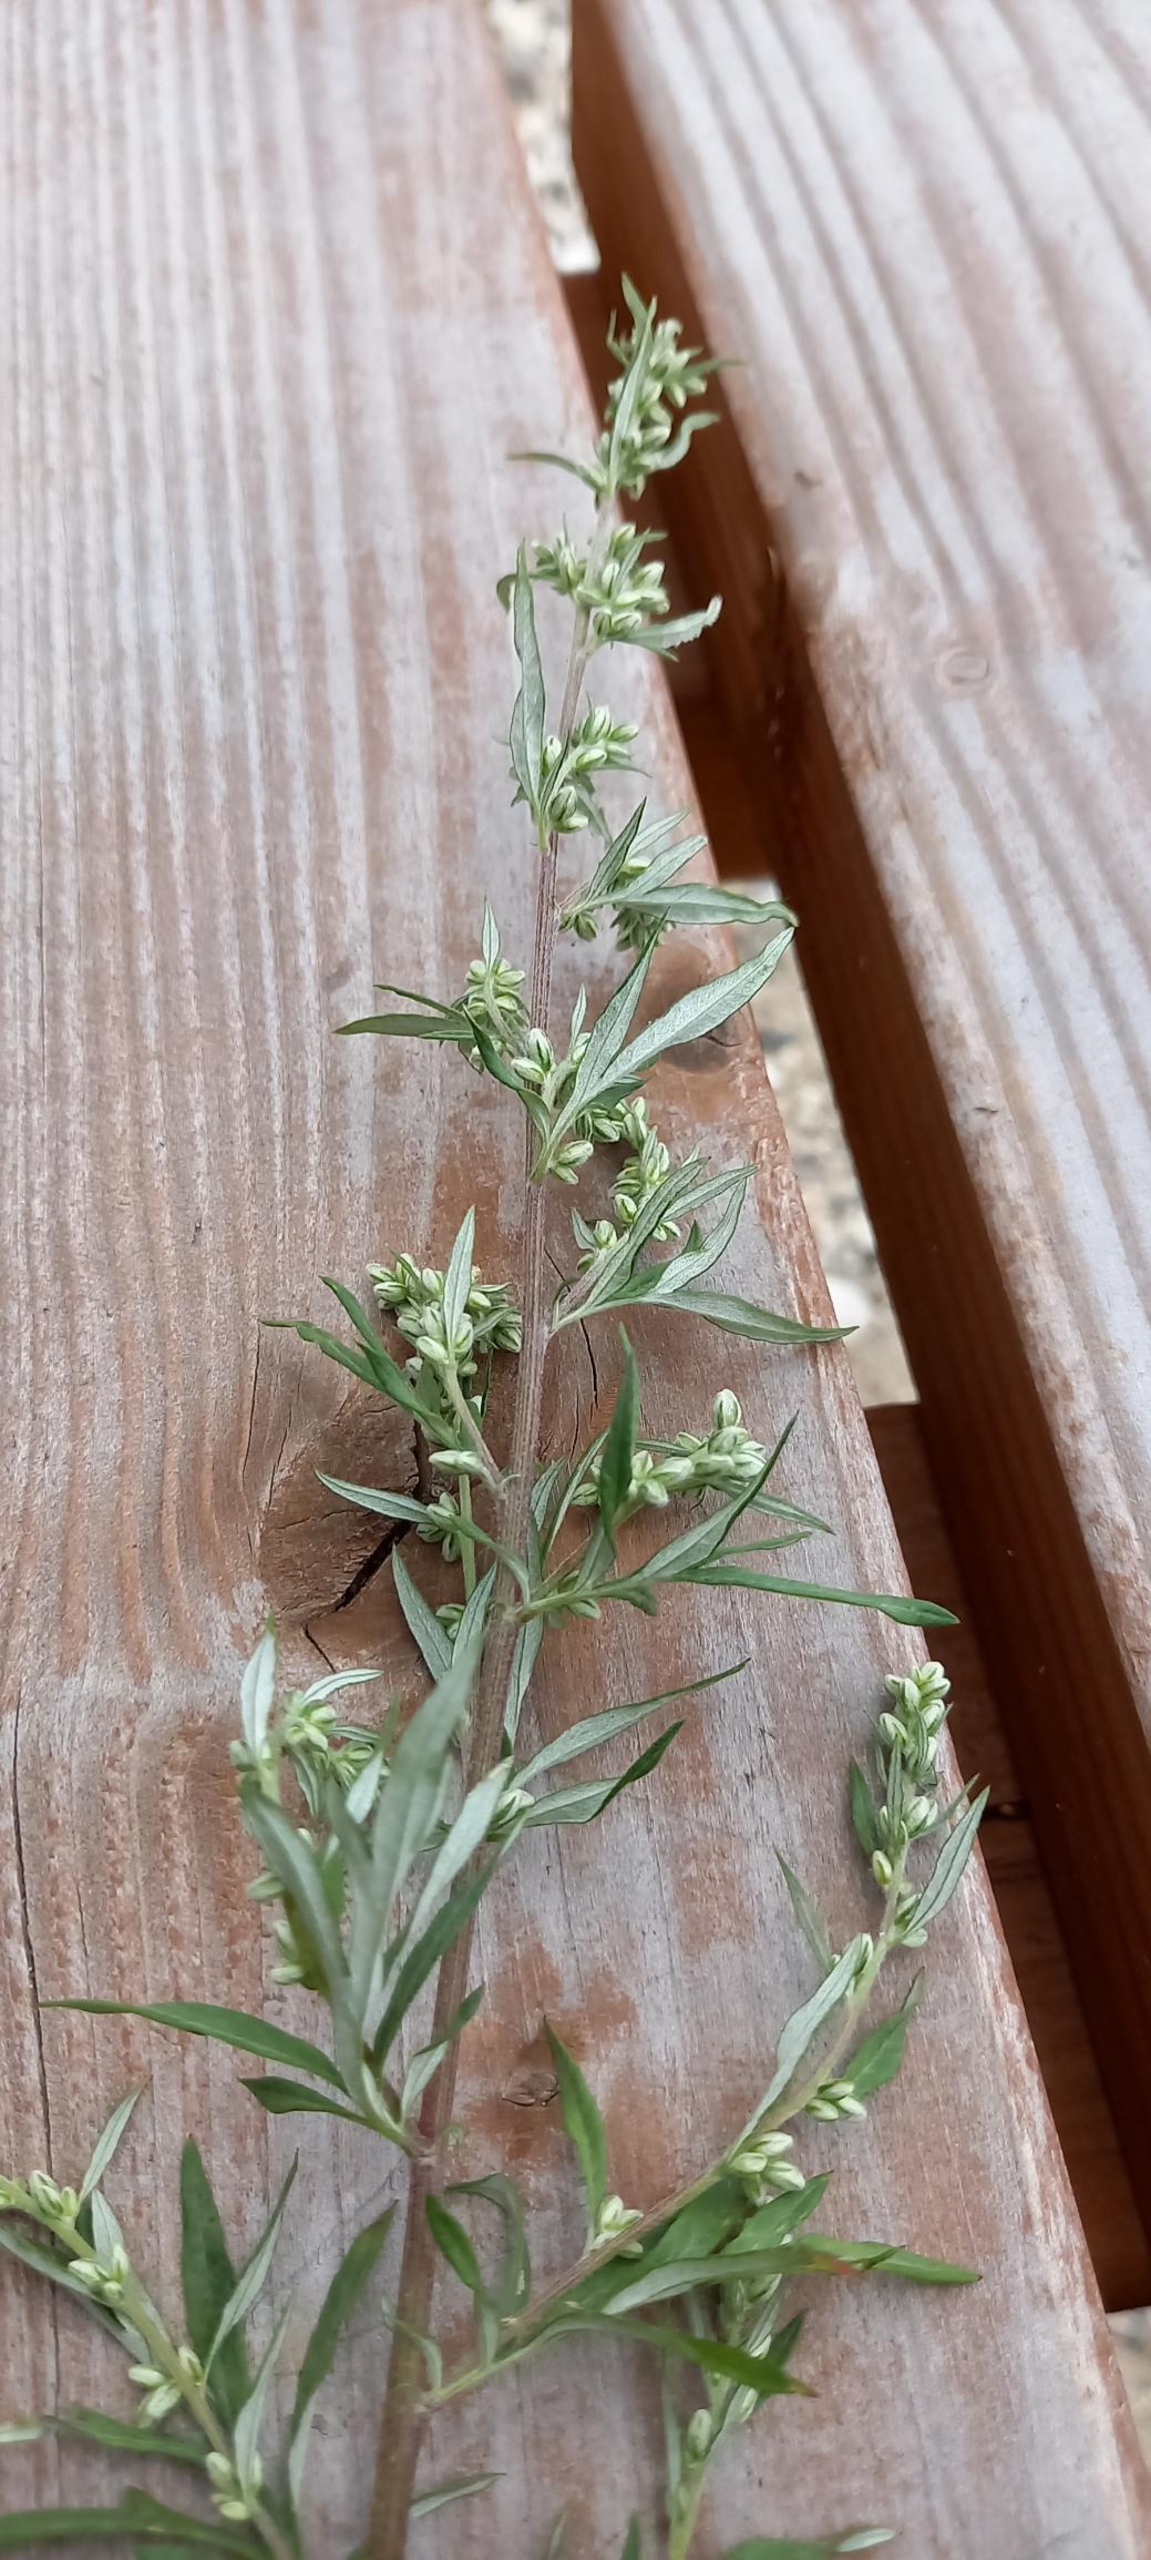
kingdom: Plantae
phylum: Tracheophyta
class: Magnoliopsida
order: Asterales
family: Asteraceae
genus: Artemisia
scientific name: Artemisia vulgaris
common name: Grå-bynke
